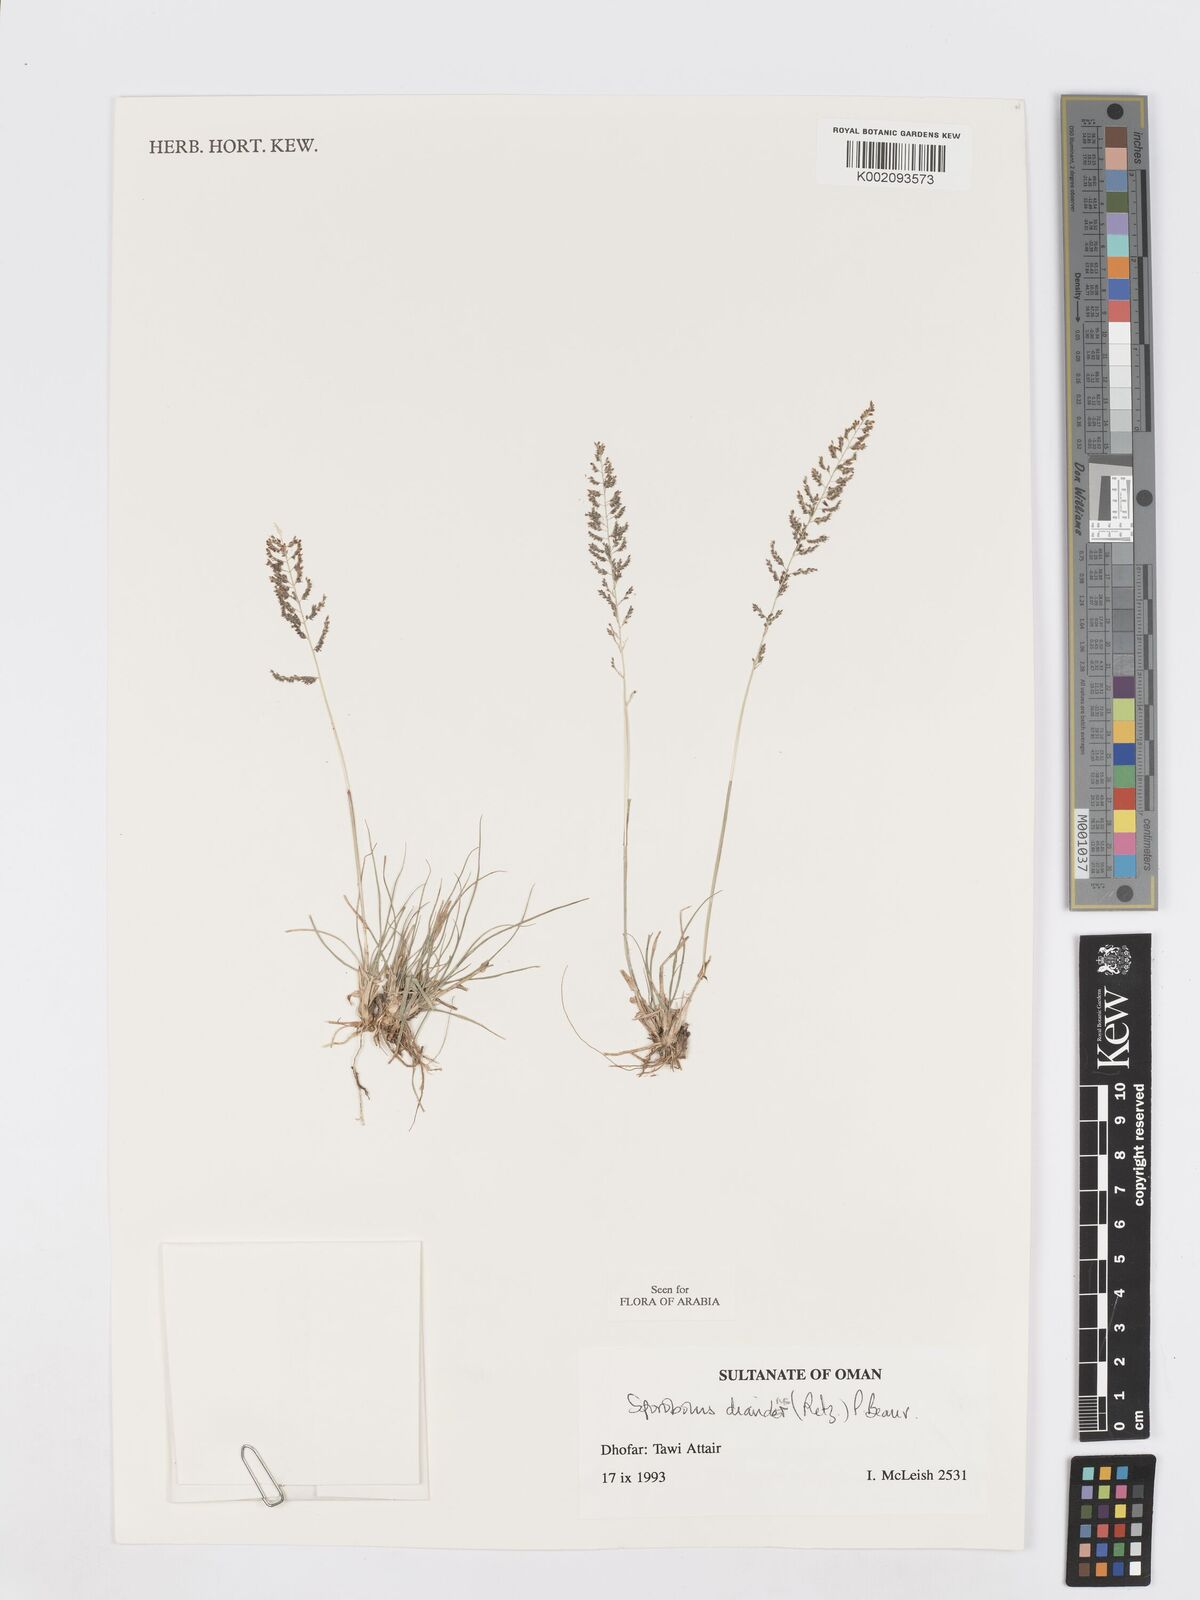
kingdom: Plantae
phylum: Tracheophyta
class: Liliopsida
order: Poales
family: Poaceae
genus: Sporobolus
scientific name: Sporobolus diandrus
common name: Tussock dropseed
